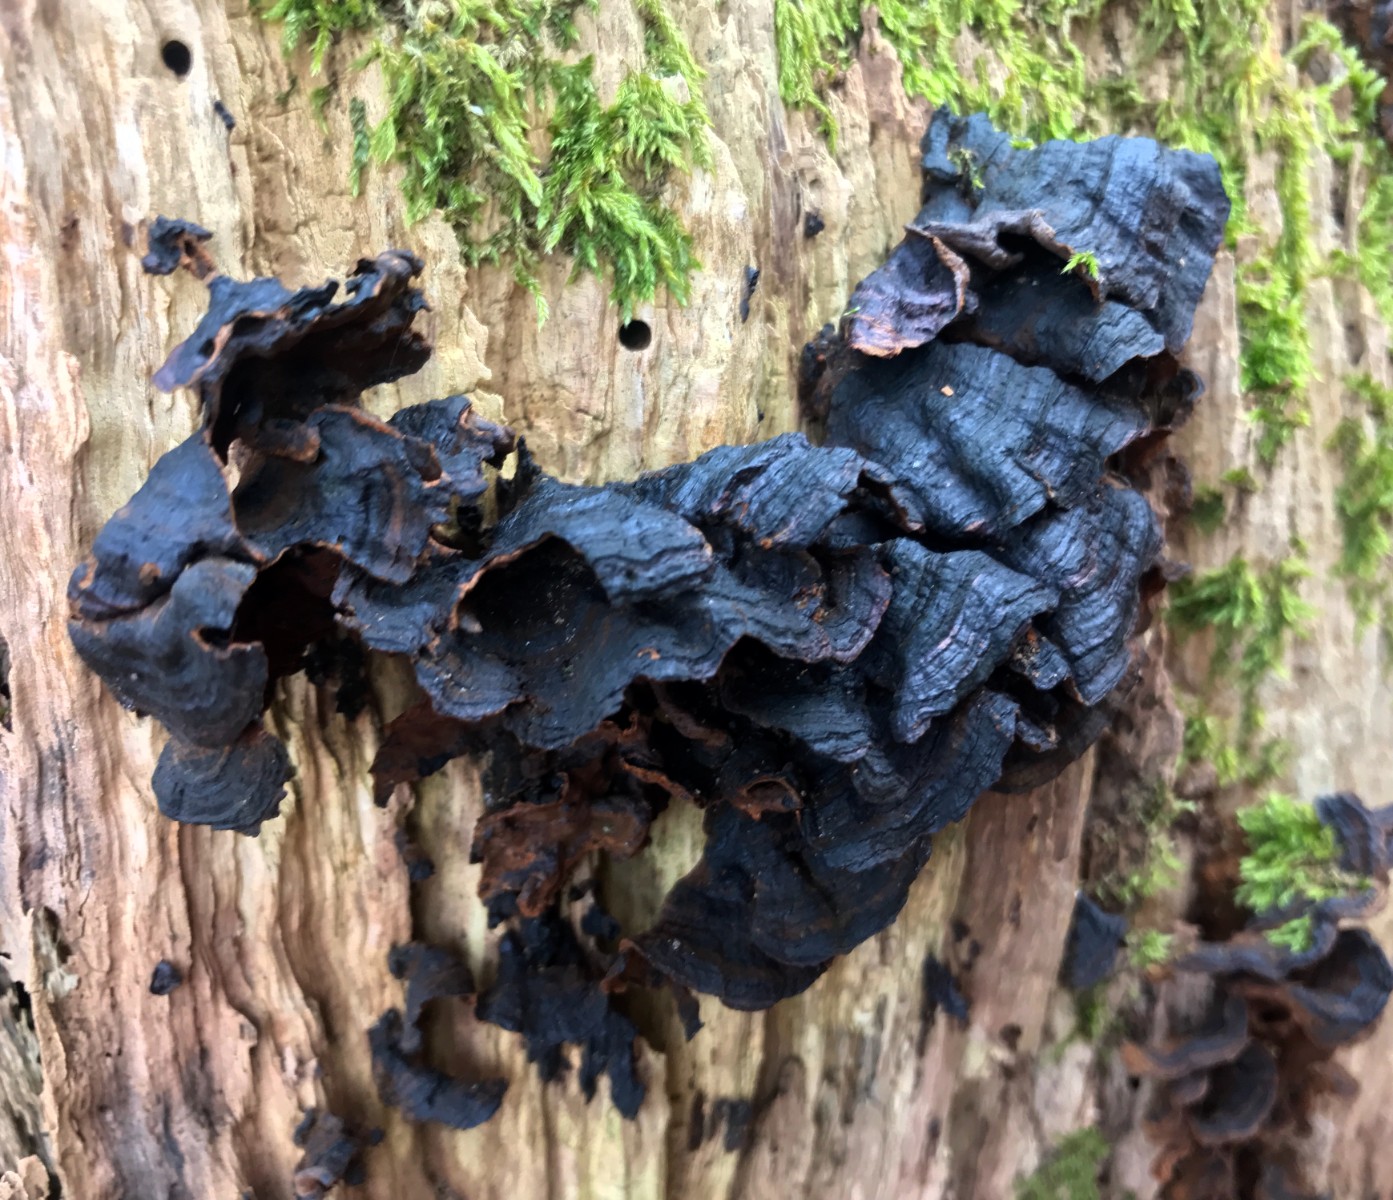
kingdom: Fungi
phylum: Basidiomycota
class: Agaricomycetes
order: Hymenochaetales
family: Hymenochaetaceae
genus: Hymenochaete
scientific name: Hymenochaete rubiginosa
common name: stiv ruslædersvamp
